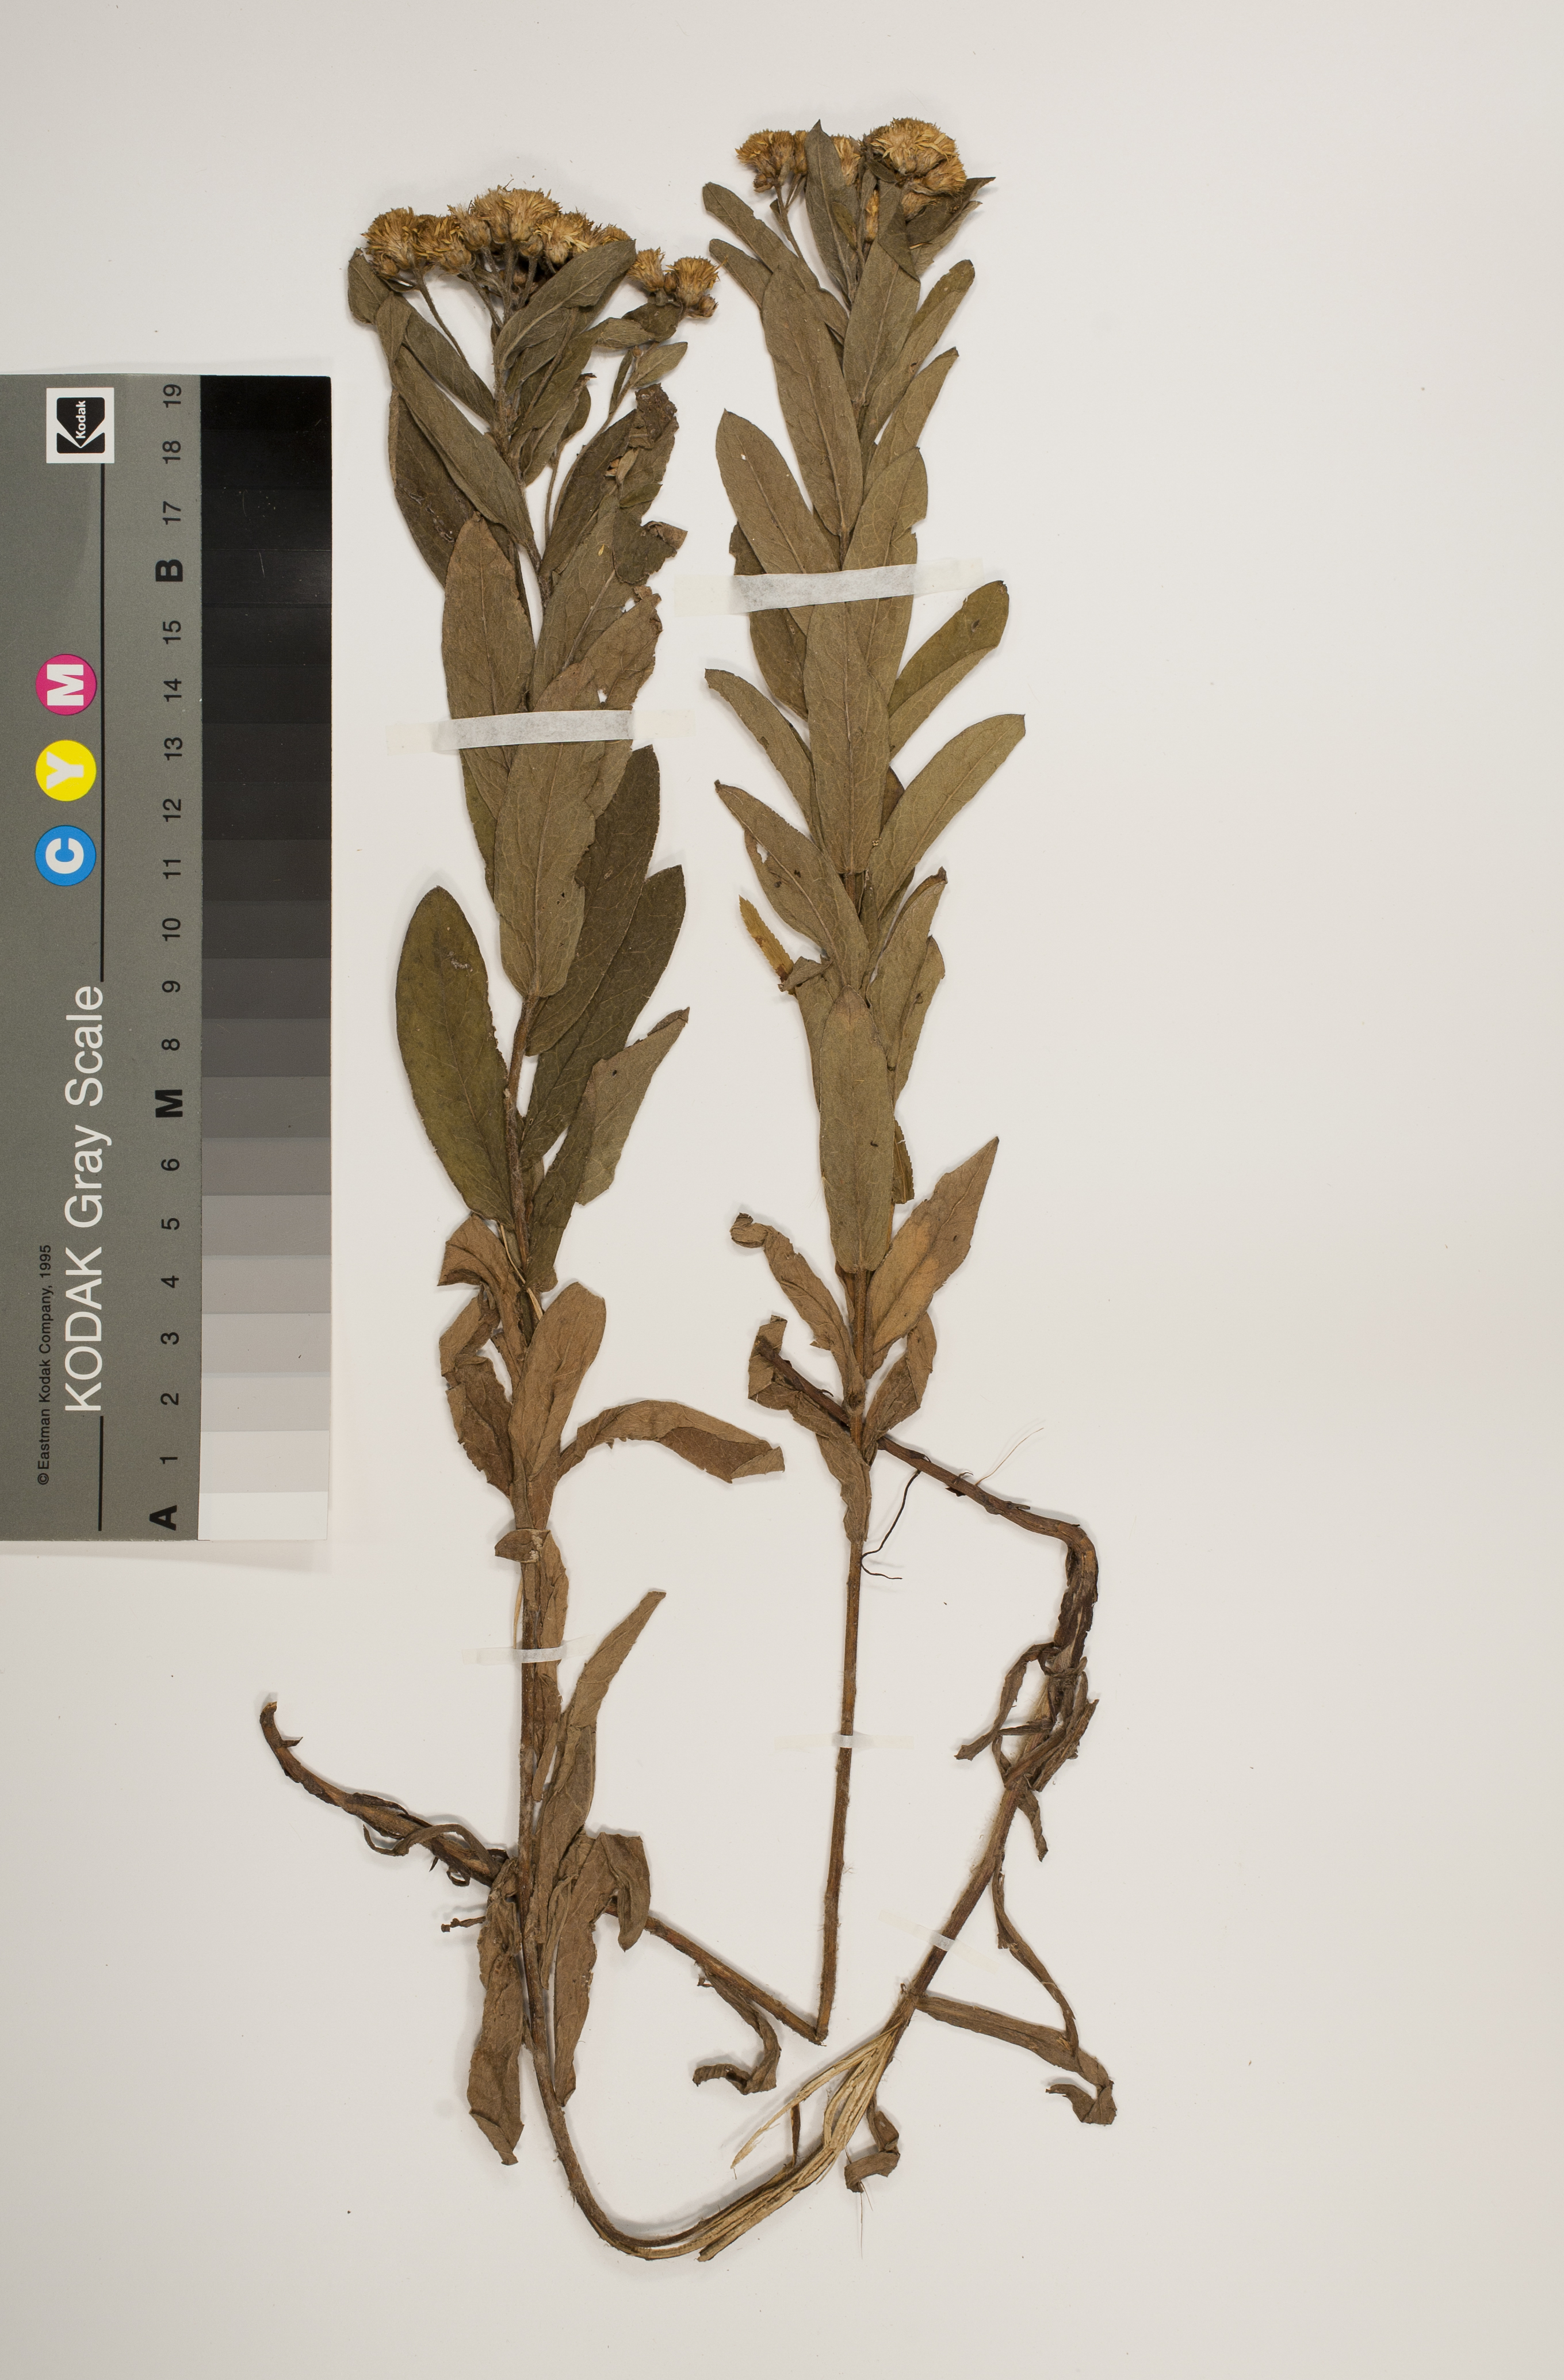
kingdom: Plantae
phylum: Tracheophyta
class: Magnoliopsida
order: Asterales
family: Asteraceae
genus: Pentanema
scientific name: Pentanema germanicum
